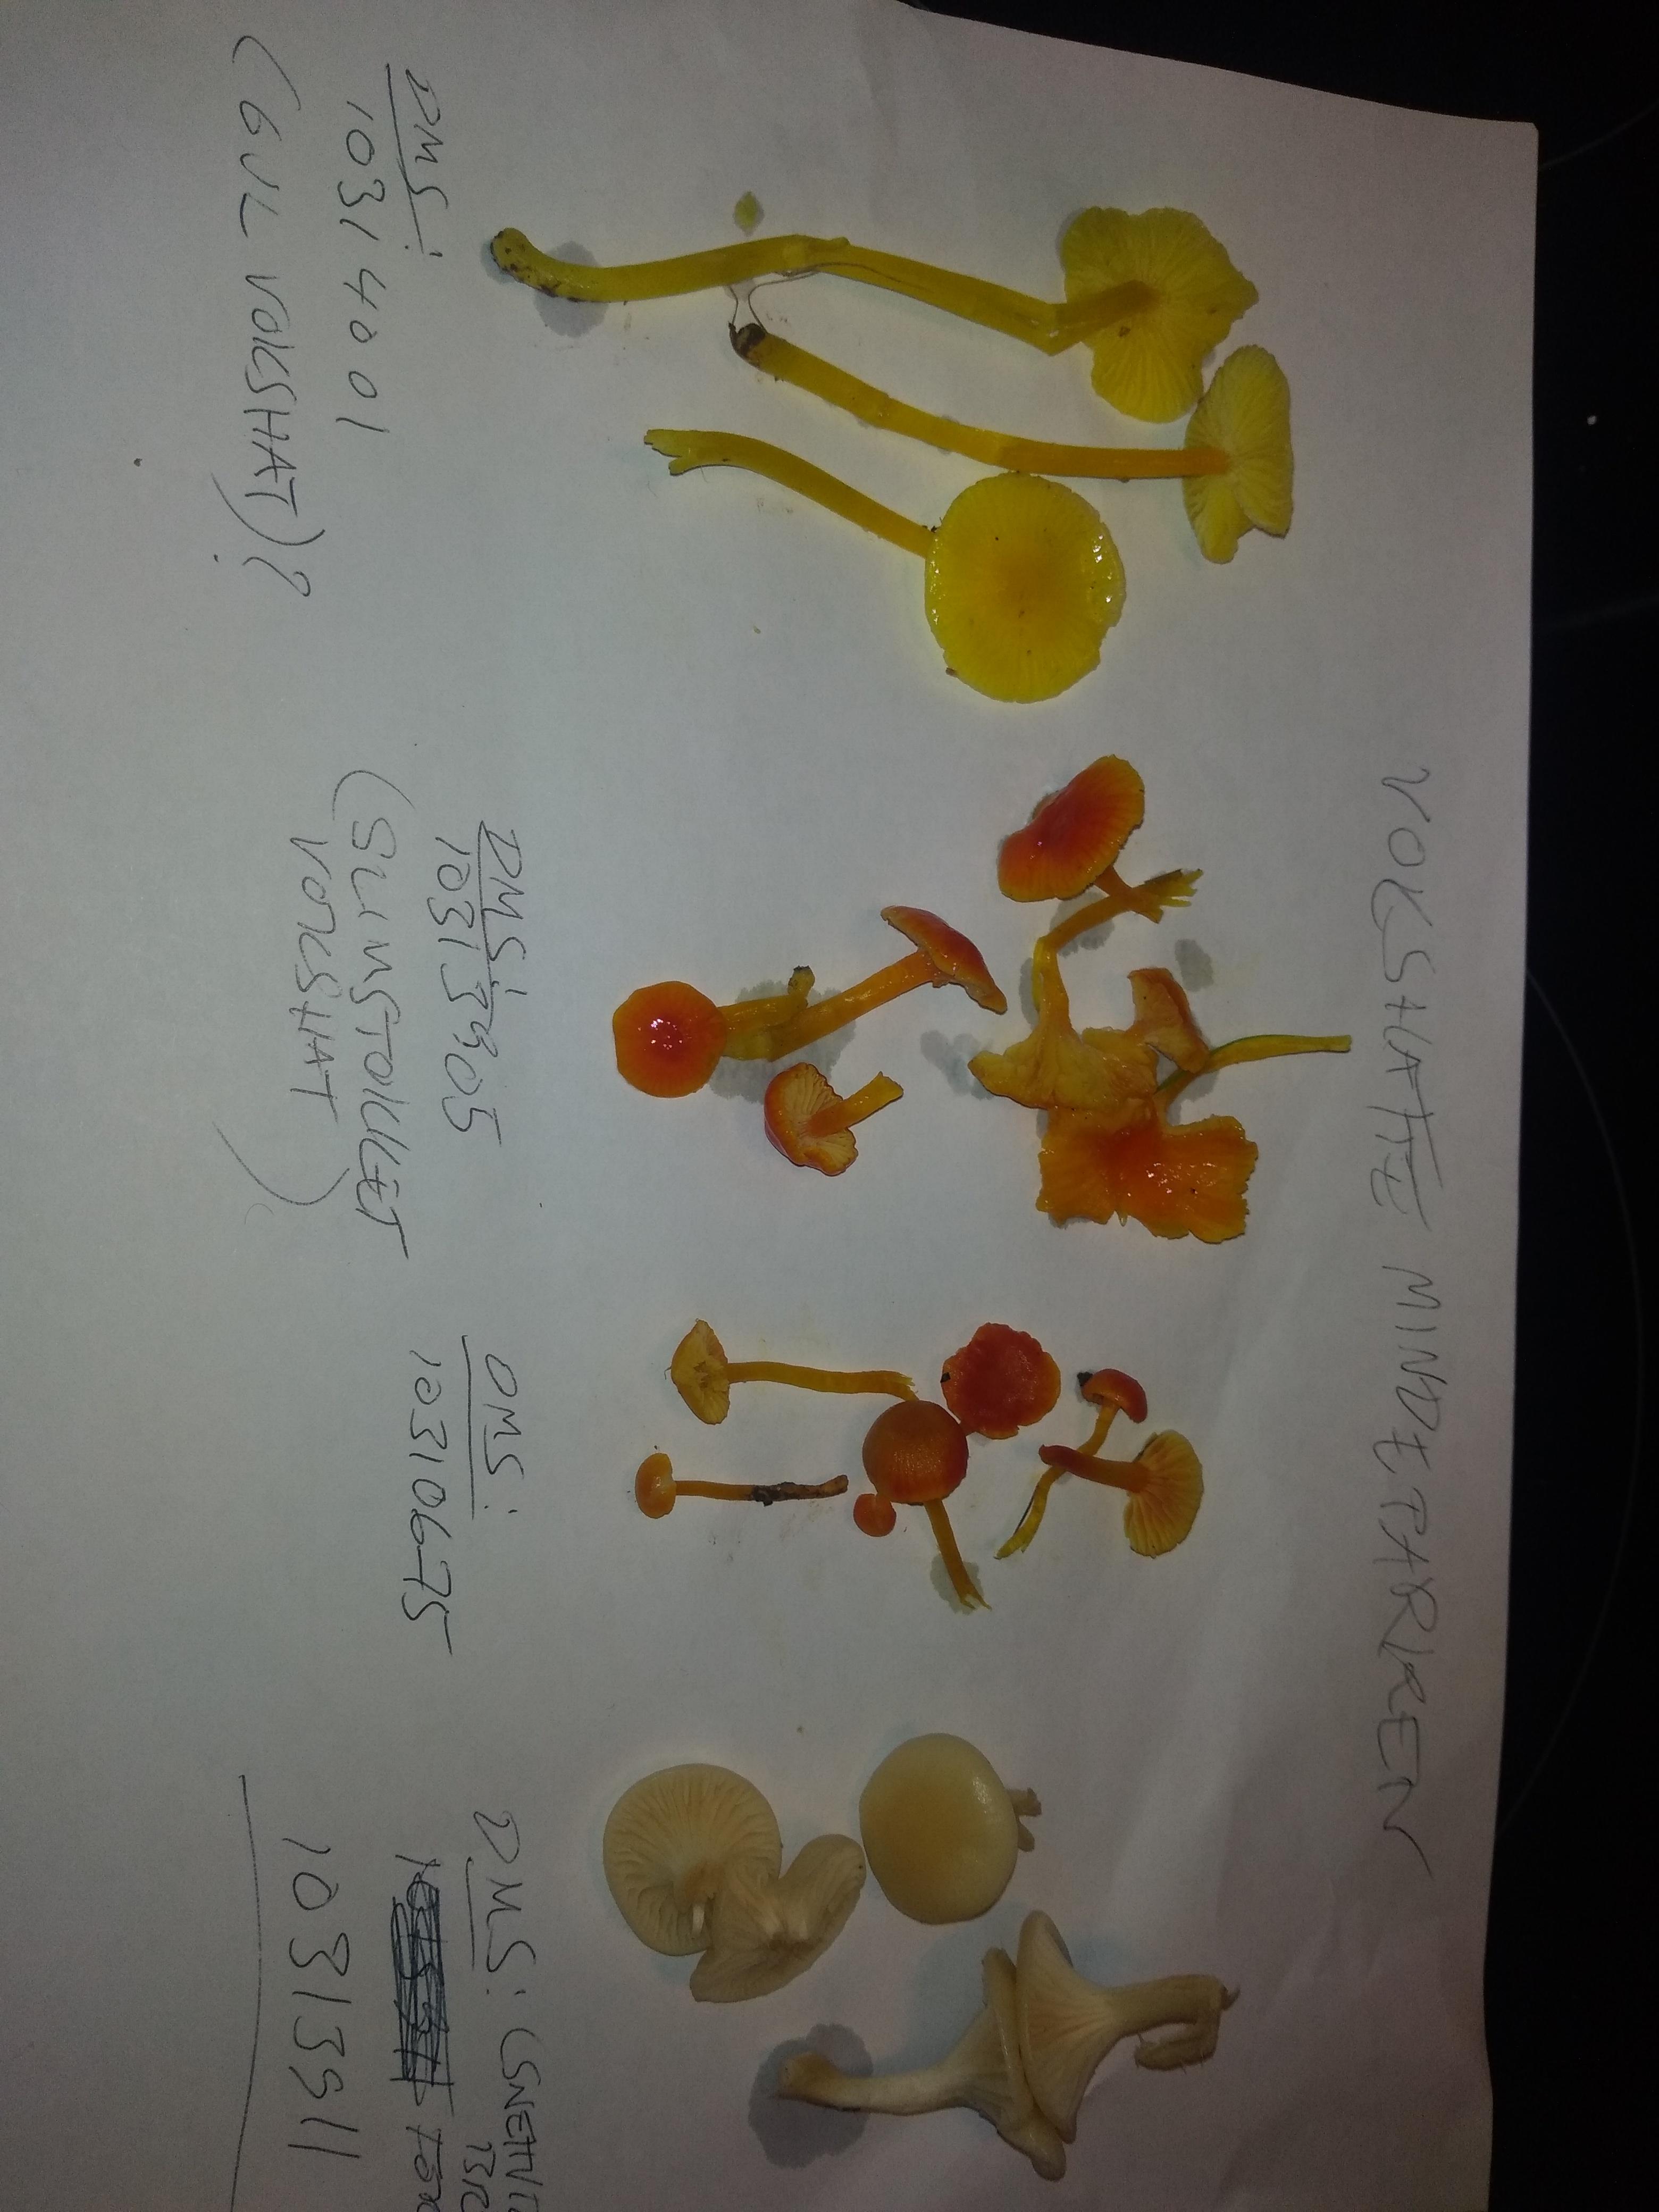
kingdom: Fungi
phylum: Basidiomycota
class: Agaricomycetes
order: Agaricales
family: Hygrophoraceae
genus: Cuphophyllus
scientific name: Cuphophyllus
